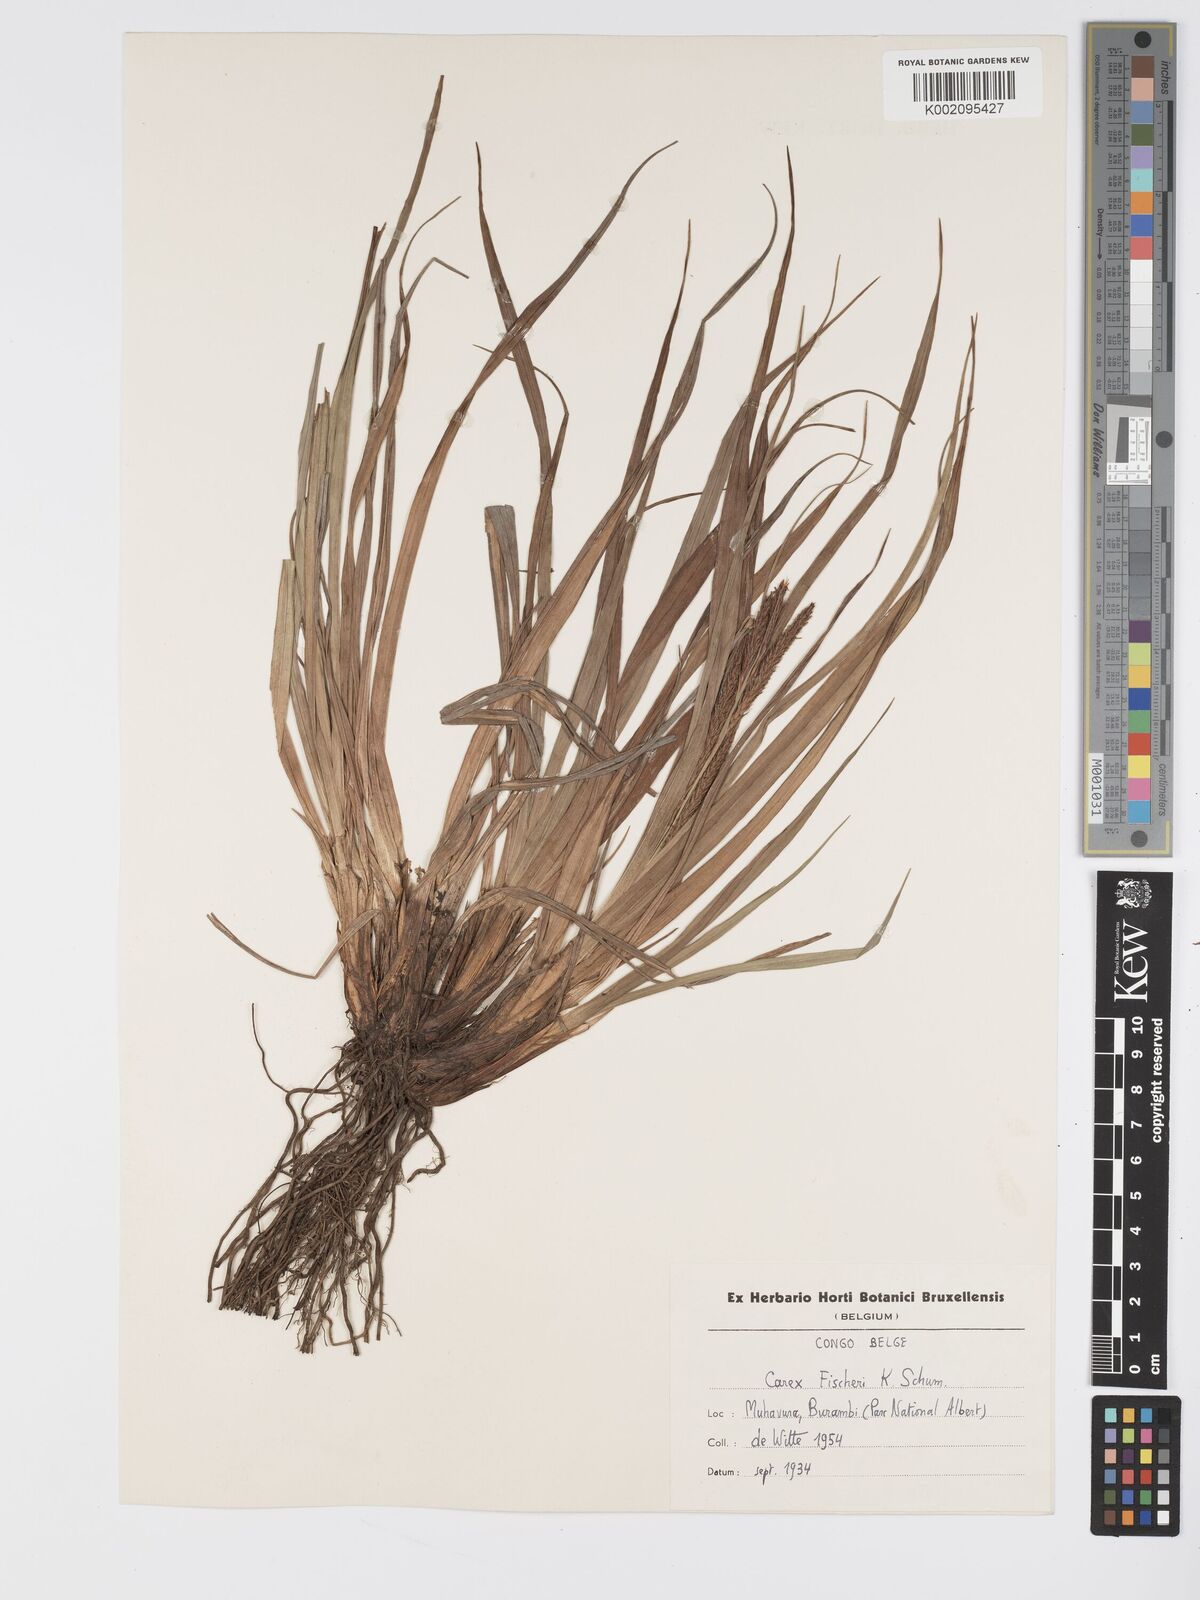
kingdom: Plantae
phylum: Tracheophyta
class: Liliopsida
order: Poales
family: Cyperaceae
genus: Carex
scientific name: Carex fischeri
